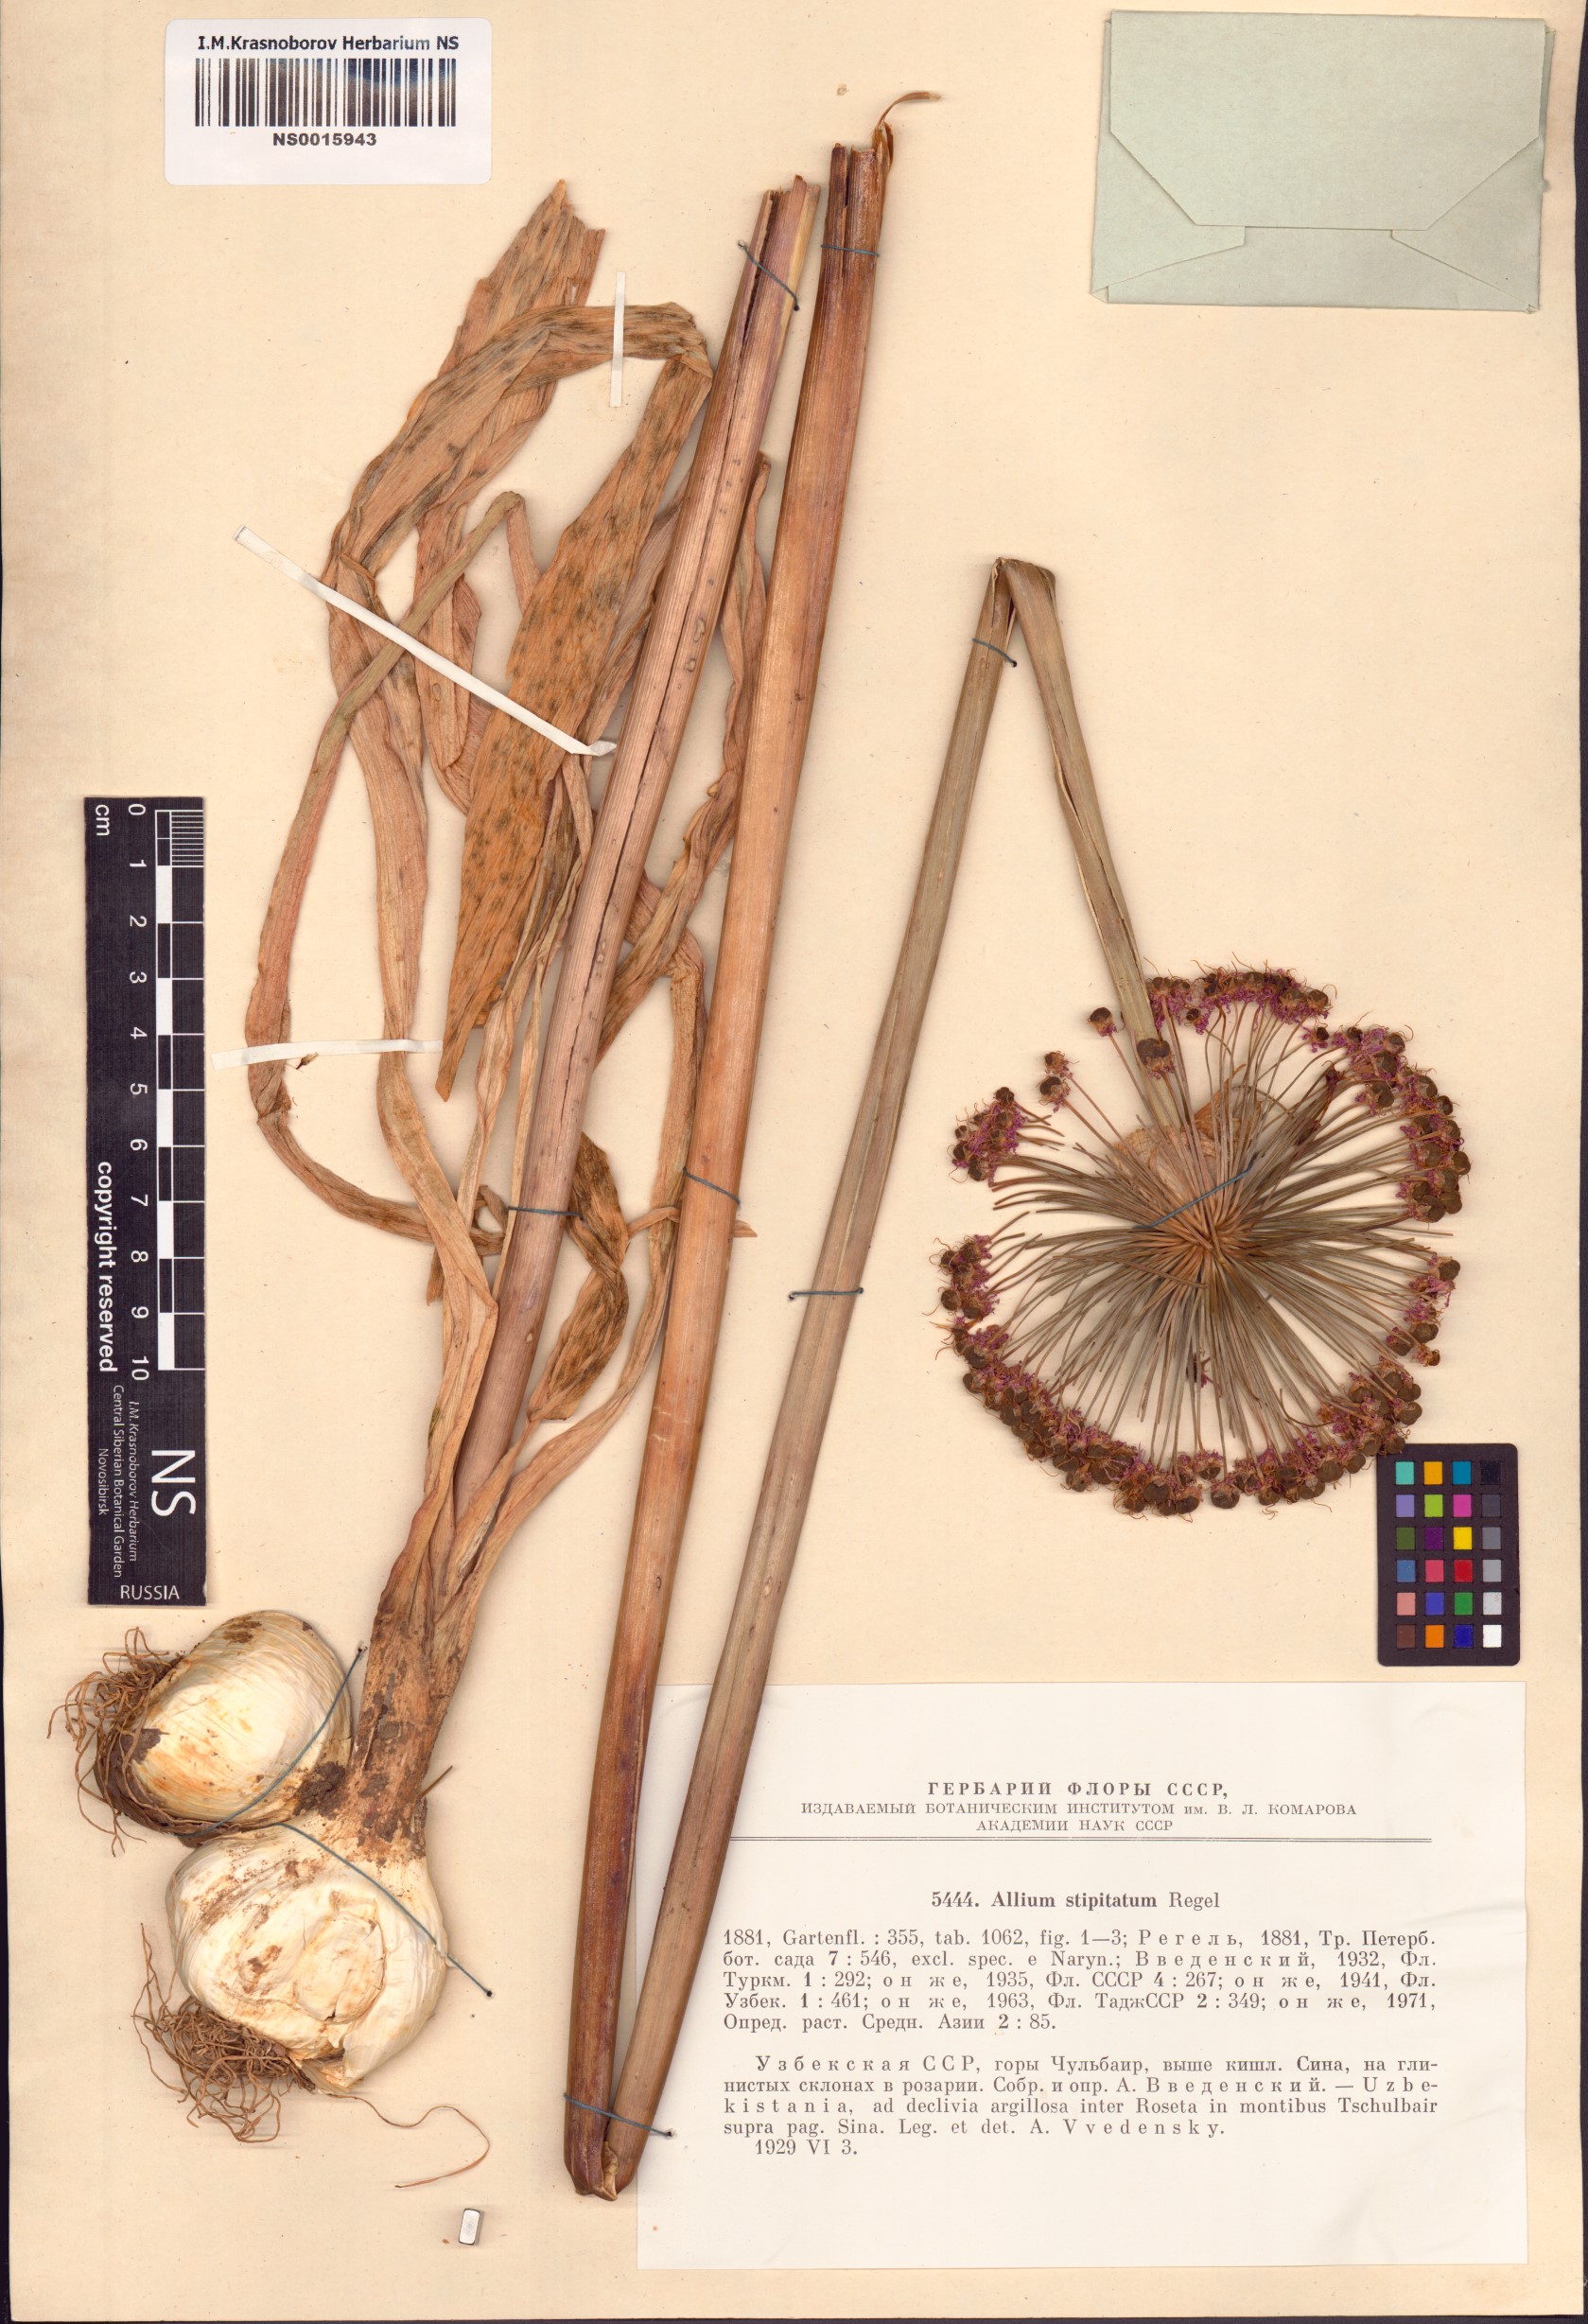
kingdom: Plantae
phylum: Tracheophyta
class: Liliopsida
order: Asparagales
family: Amaryllidaceae
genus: Allium
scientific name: Allium stipitatum
